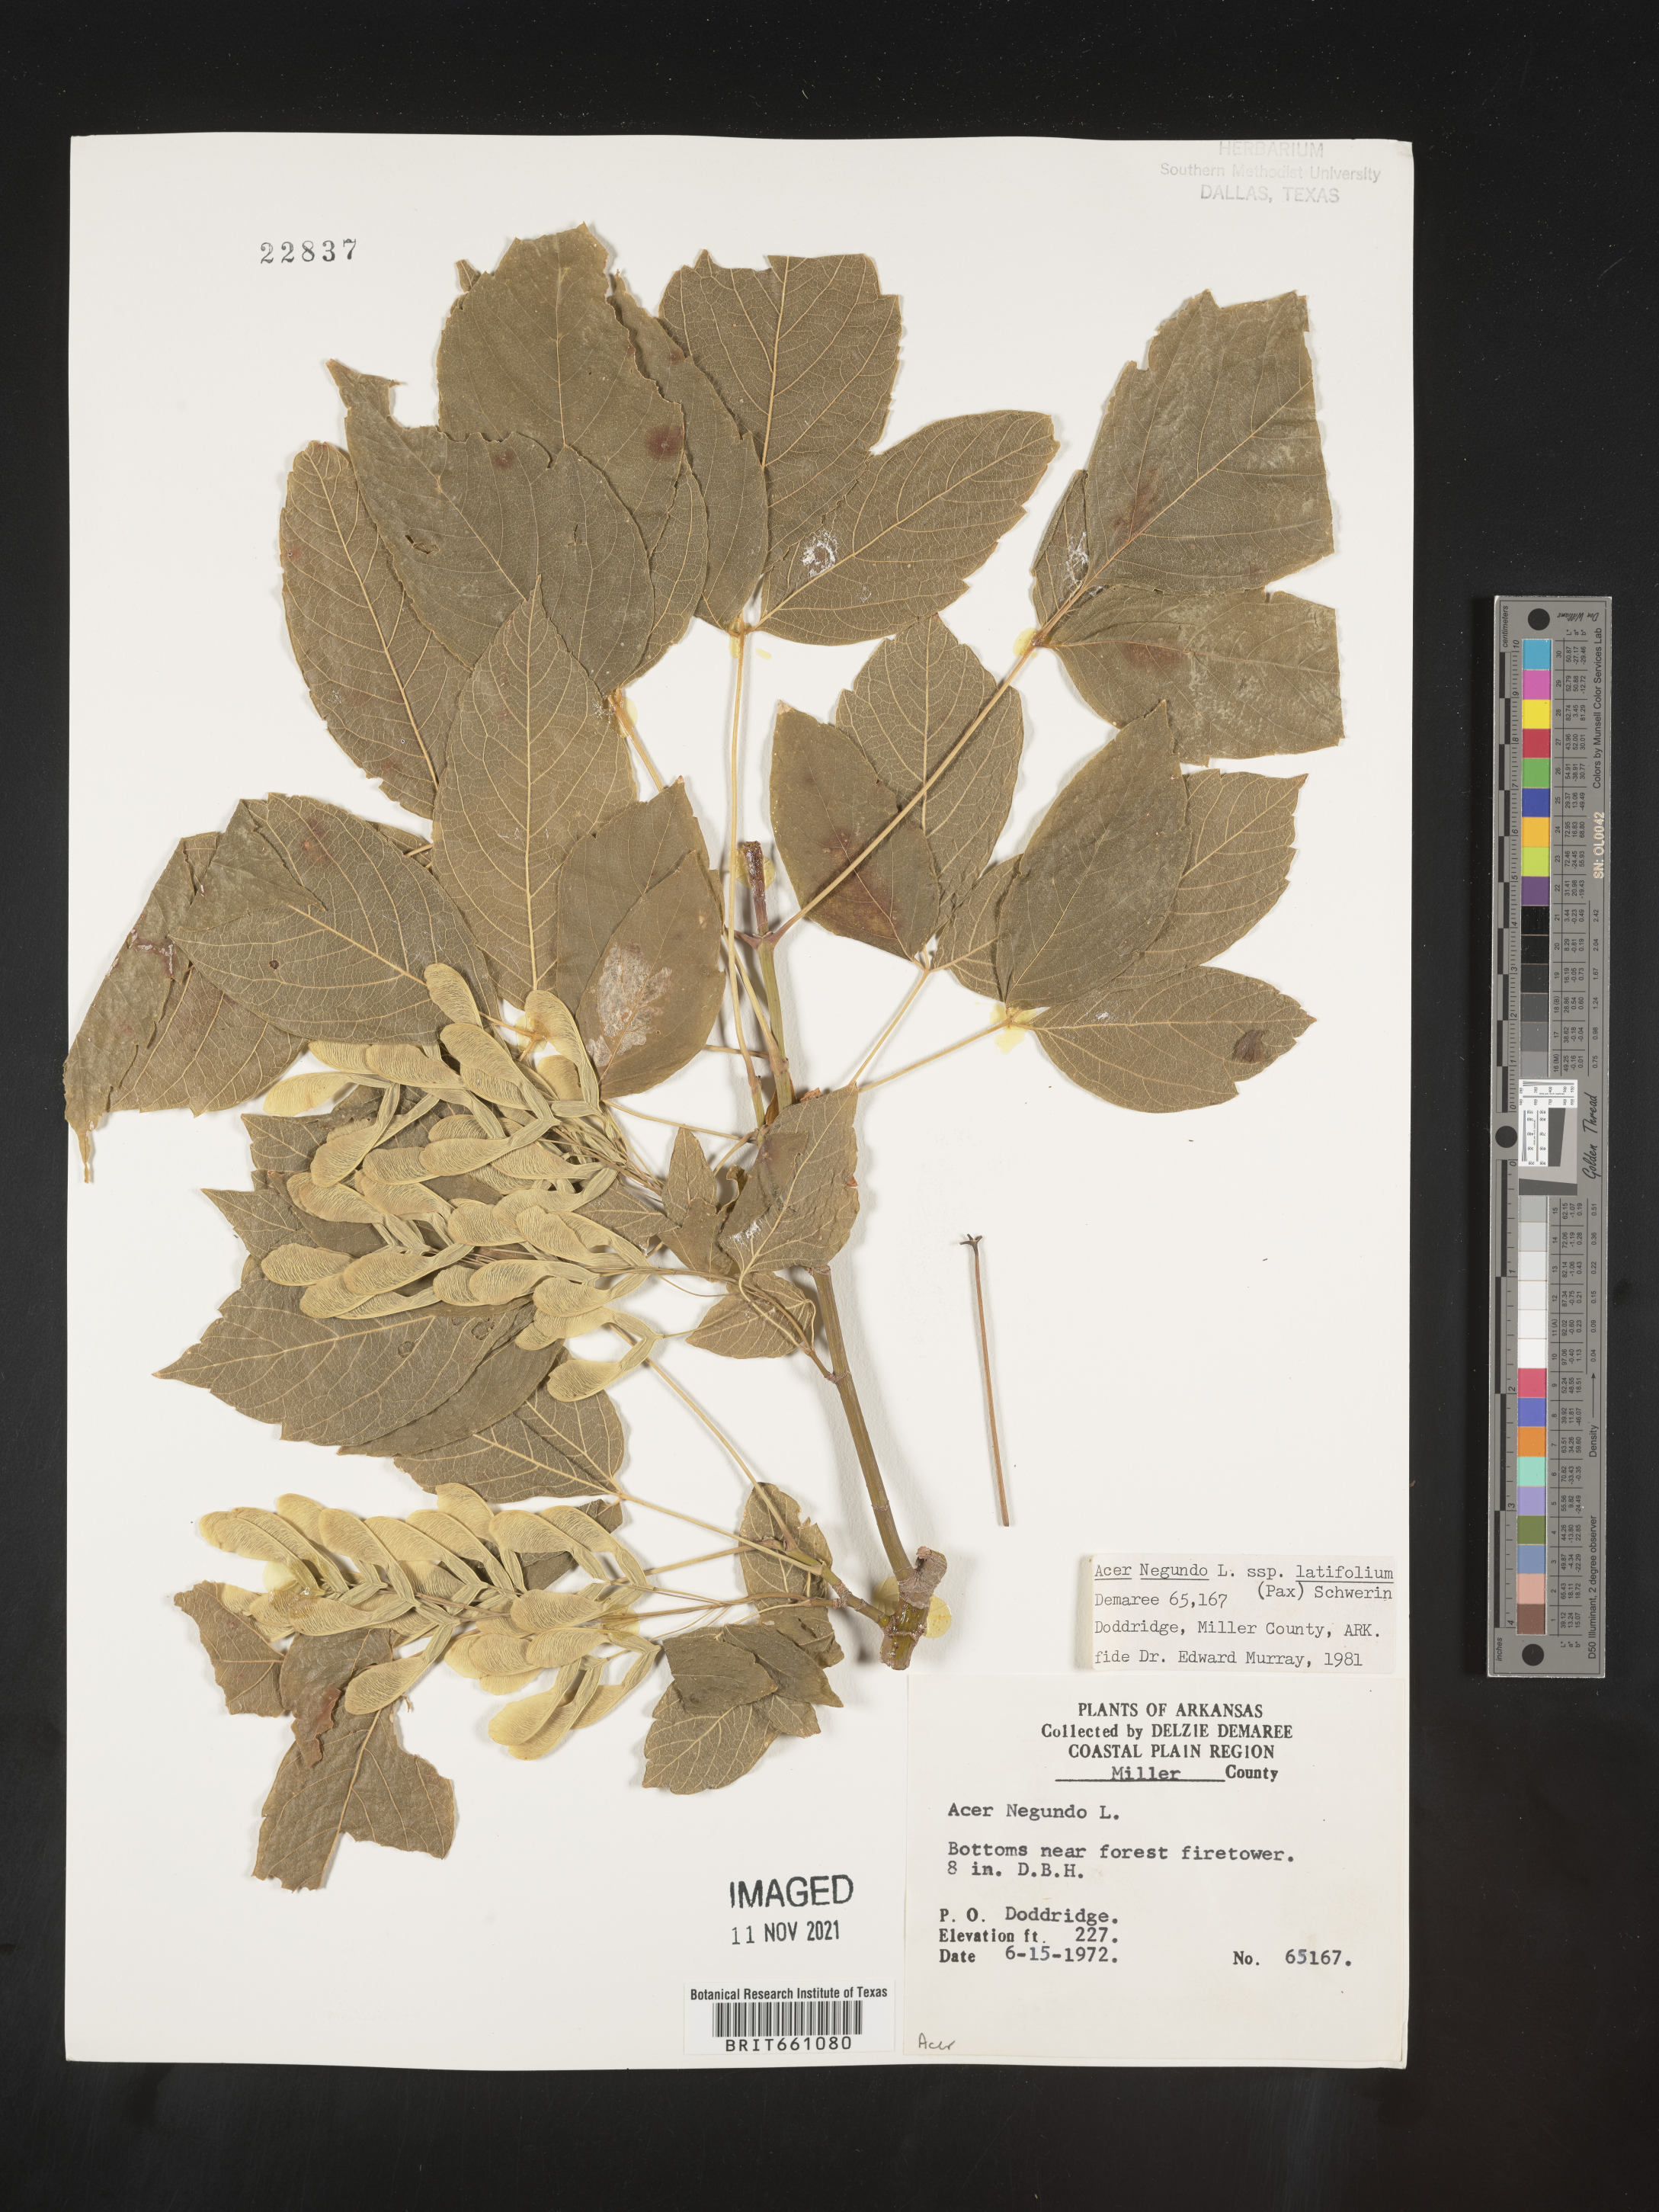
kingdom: Plantae
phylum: Tracheophyta
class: Magnoliopsida
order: Sapindales
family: Sapindaceae
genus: Acer
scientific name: Acer negundo
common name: Ashleaf maple
